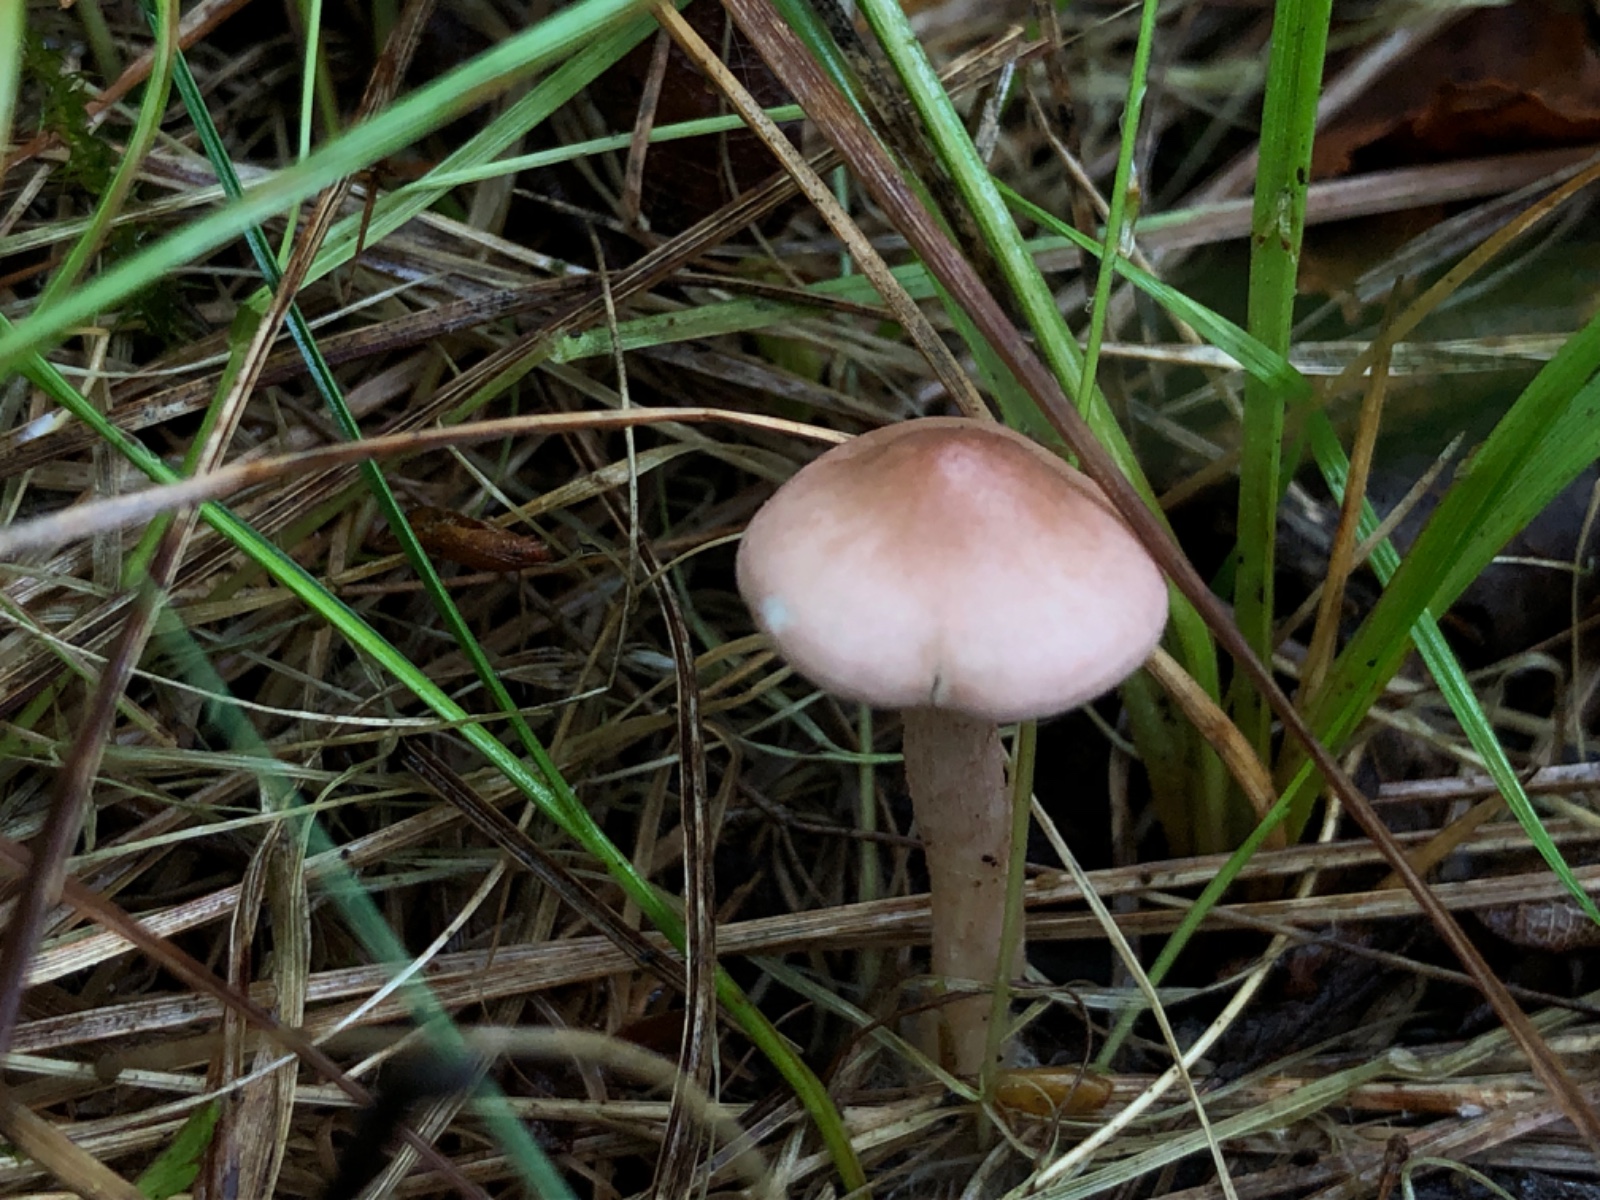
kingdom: Fungi
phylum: Basidiomycota
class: Agaricomycetes
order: Agaricales
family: Lyophyllaceae
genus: Calocybe
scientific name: Calocybe carnea
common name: rosa fagerhat
